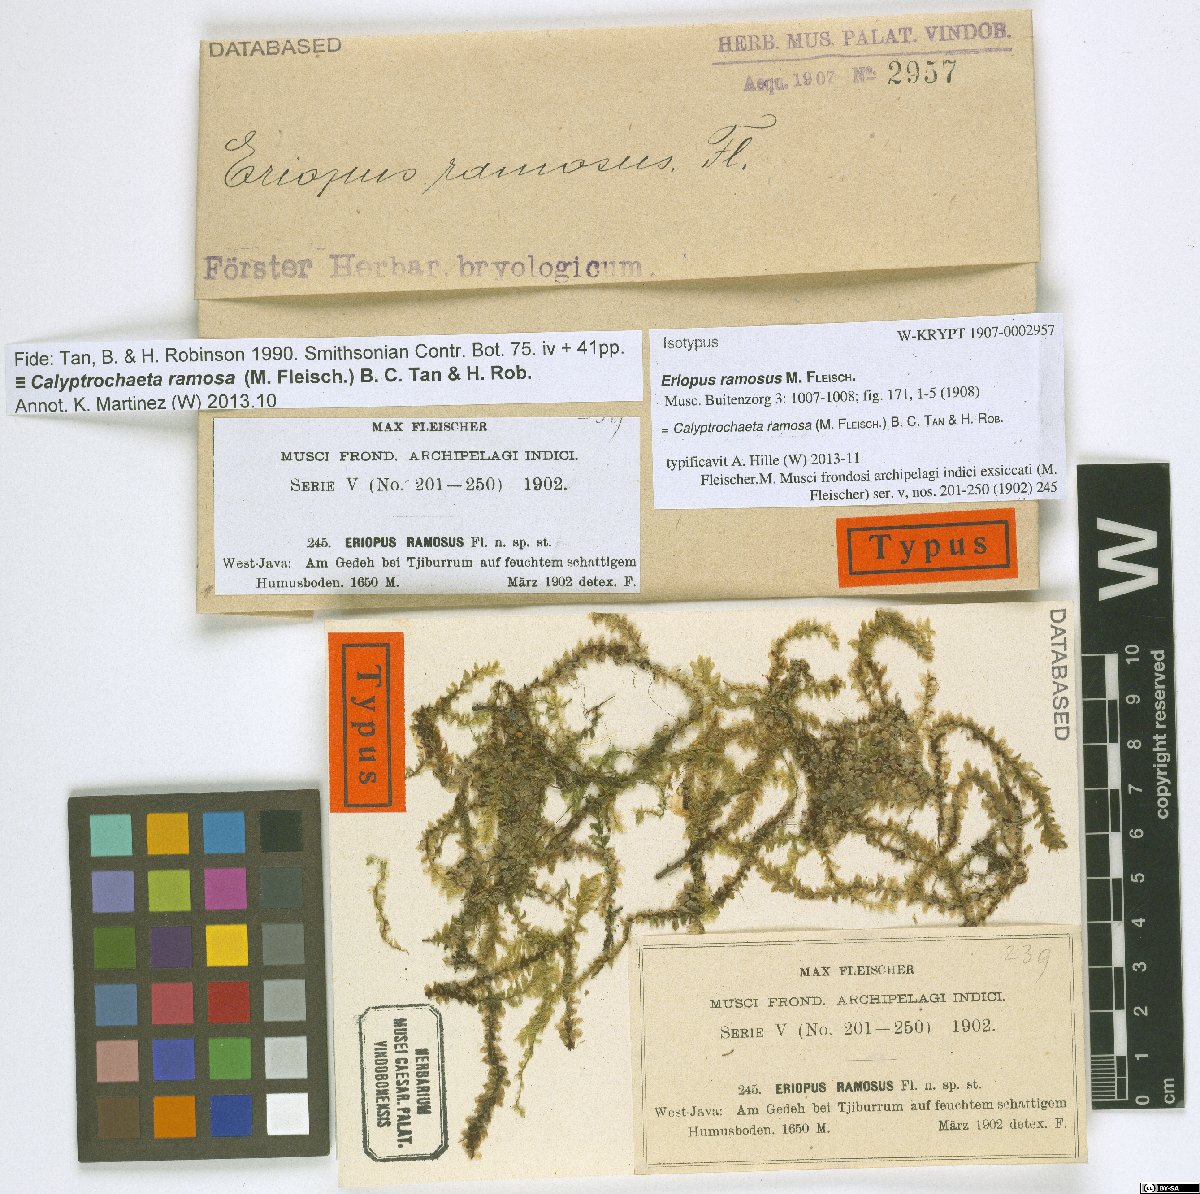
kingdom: Plantae
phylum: Bryophyta
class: Bryopsida
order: Hookeriales
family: Daltoniaceae
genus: Calyptrochaeta
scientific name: Calyptrochaeta ramosa
